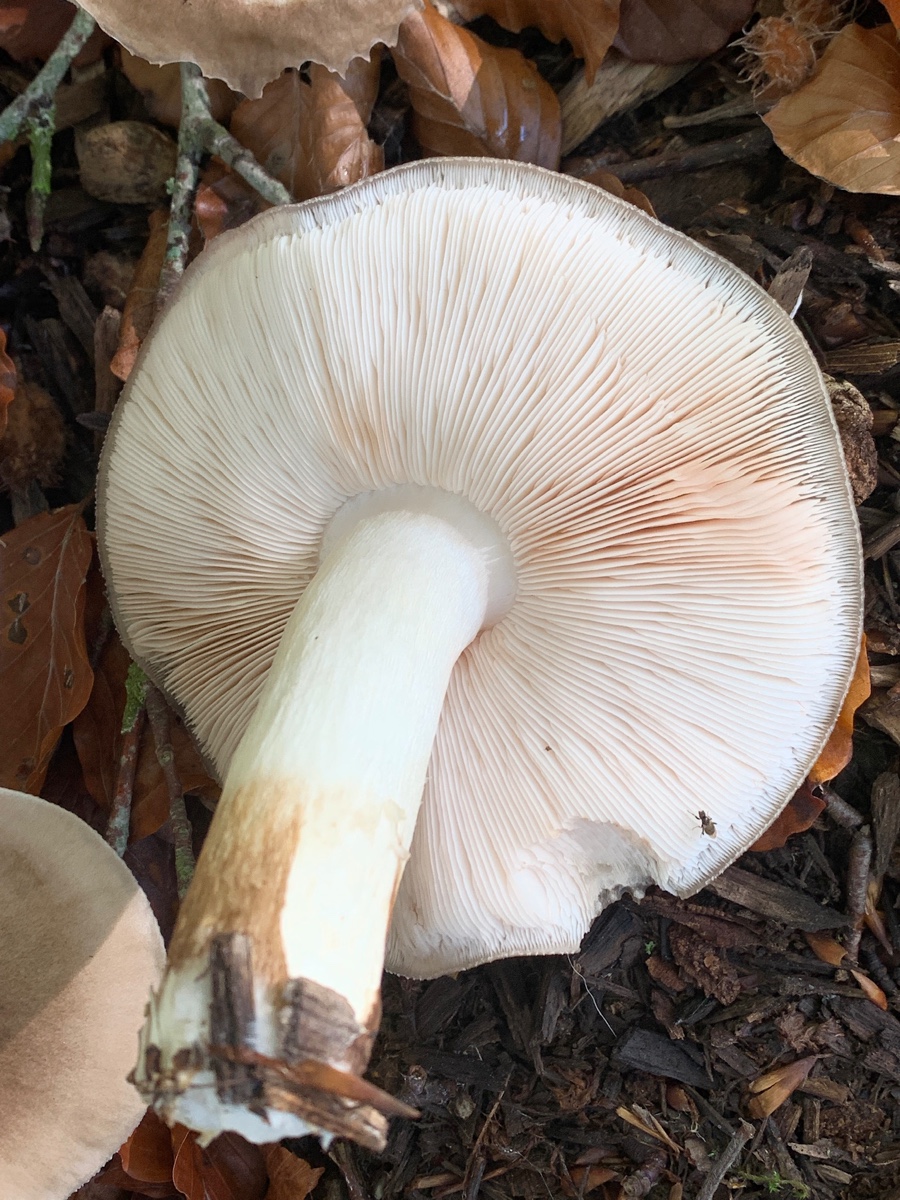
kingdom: Fungi
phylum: Basidiomycota
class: Agaricomycetes
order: Agaricales
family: Lyophyllaceae
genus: Lyophyllum
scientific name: Lyophyllum decastes
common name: Clustered domecap
